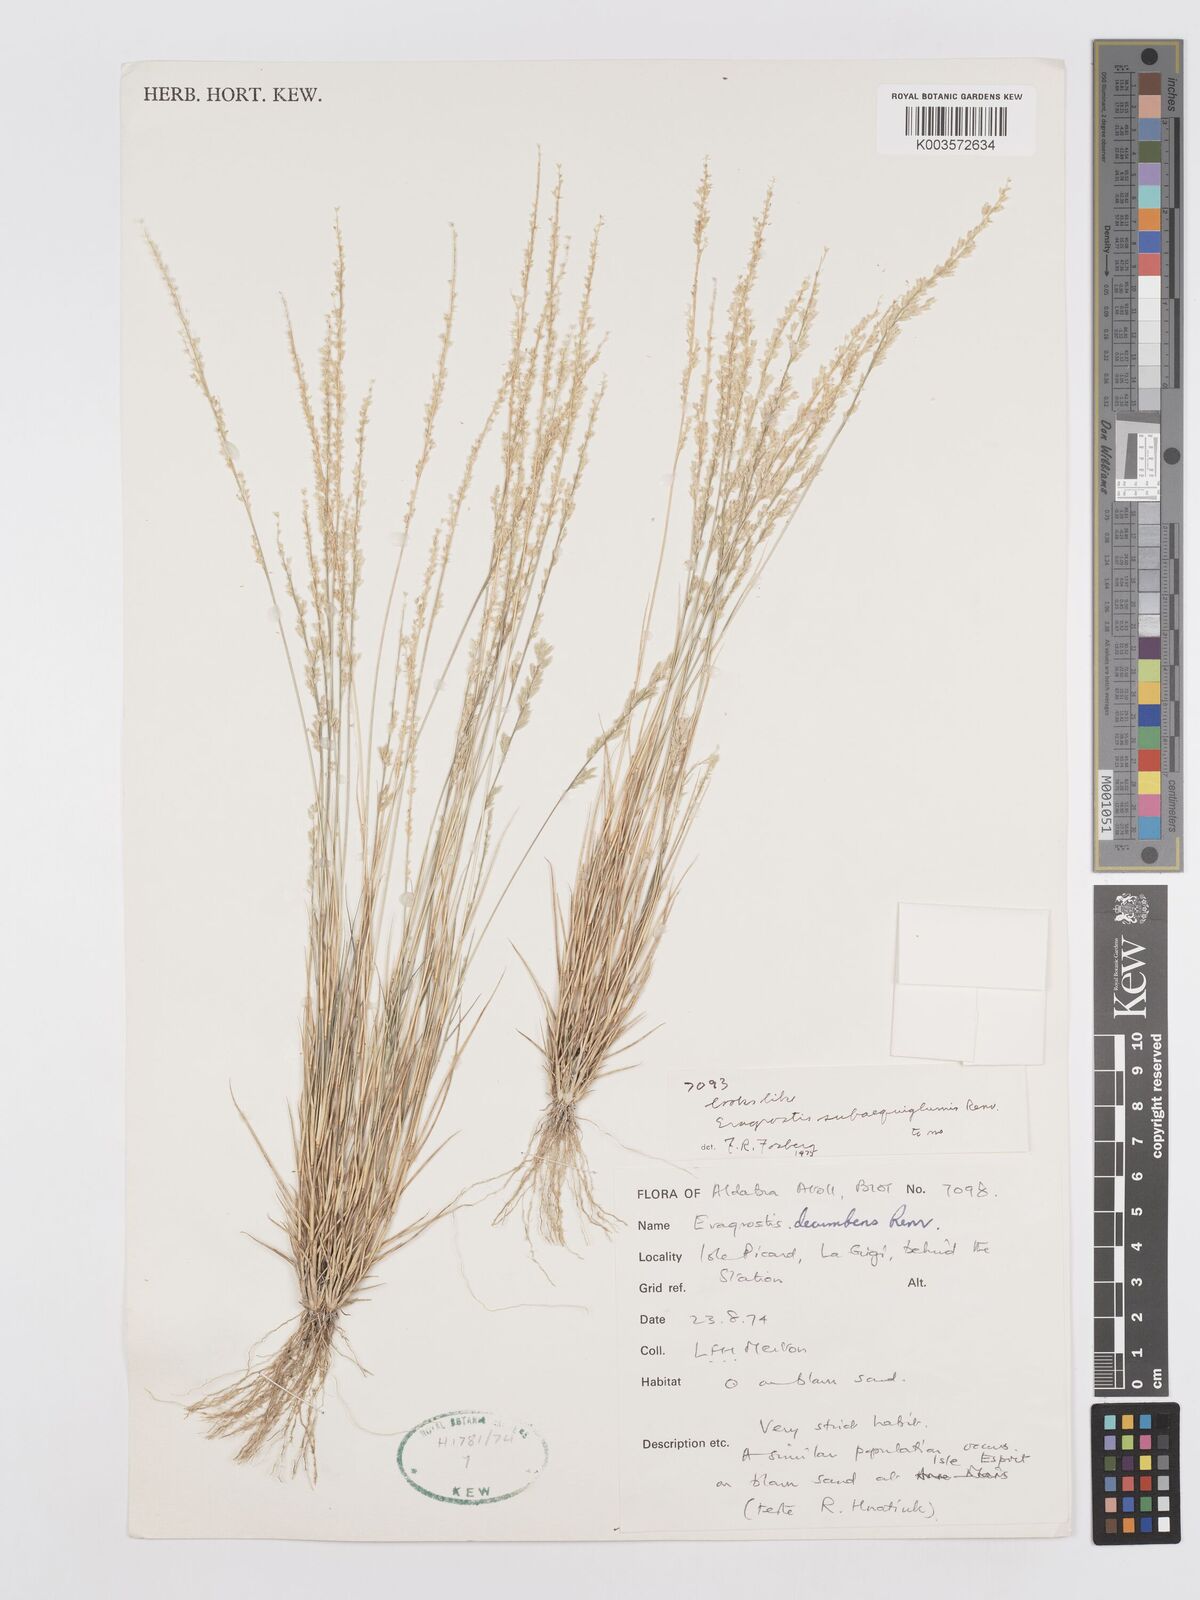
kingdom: Plantae
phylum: Tracheophyta
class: Liliopsida
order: Poales
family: Poaceae
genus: Eragrostis
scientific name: Eragrostis subaequiglumis
